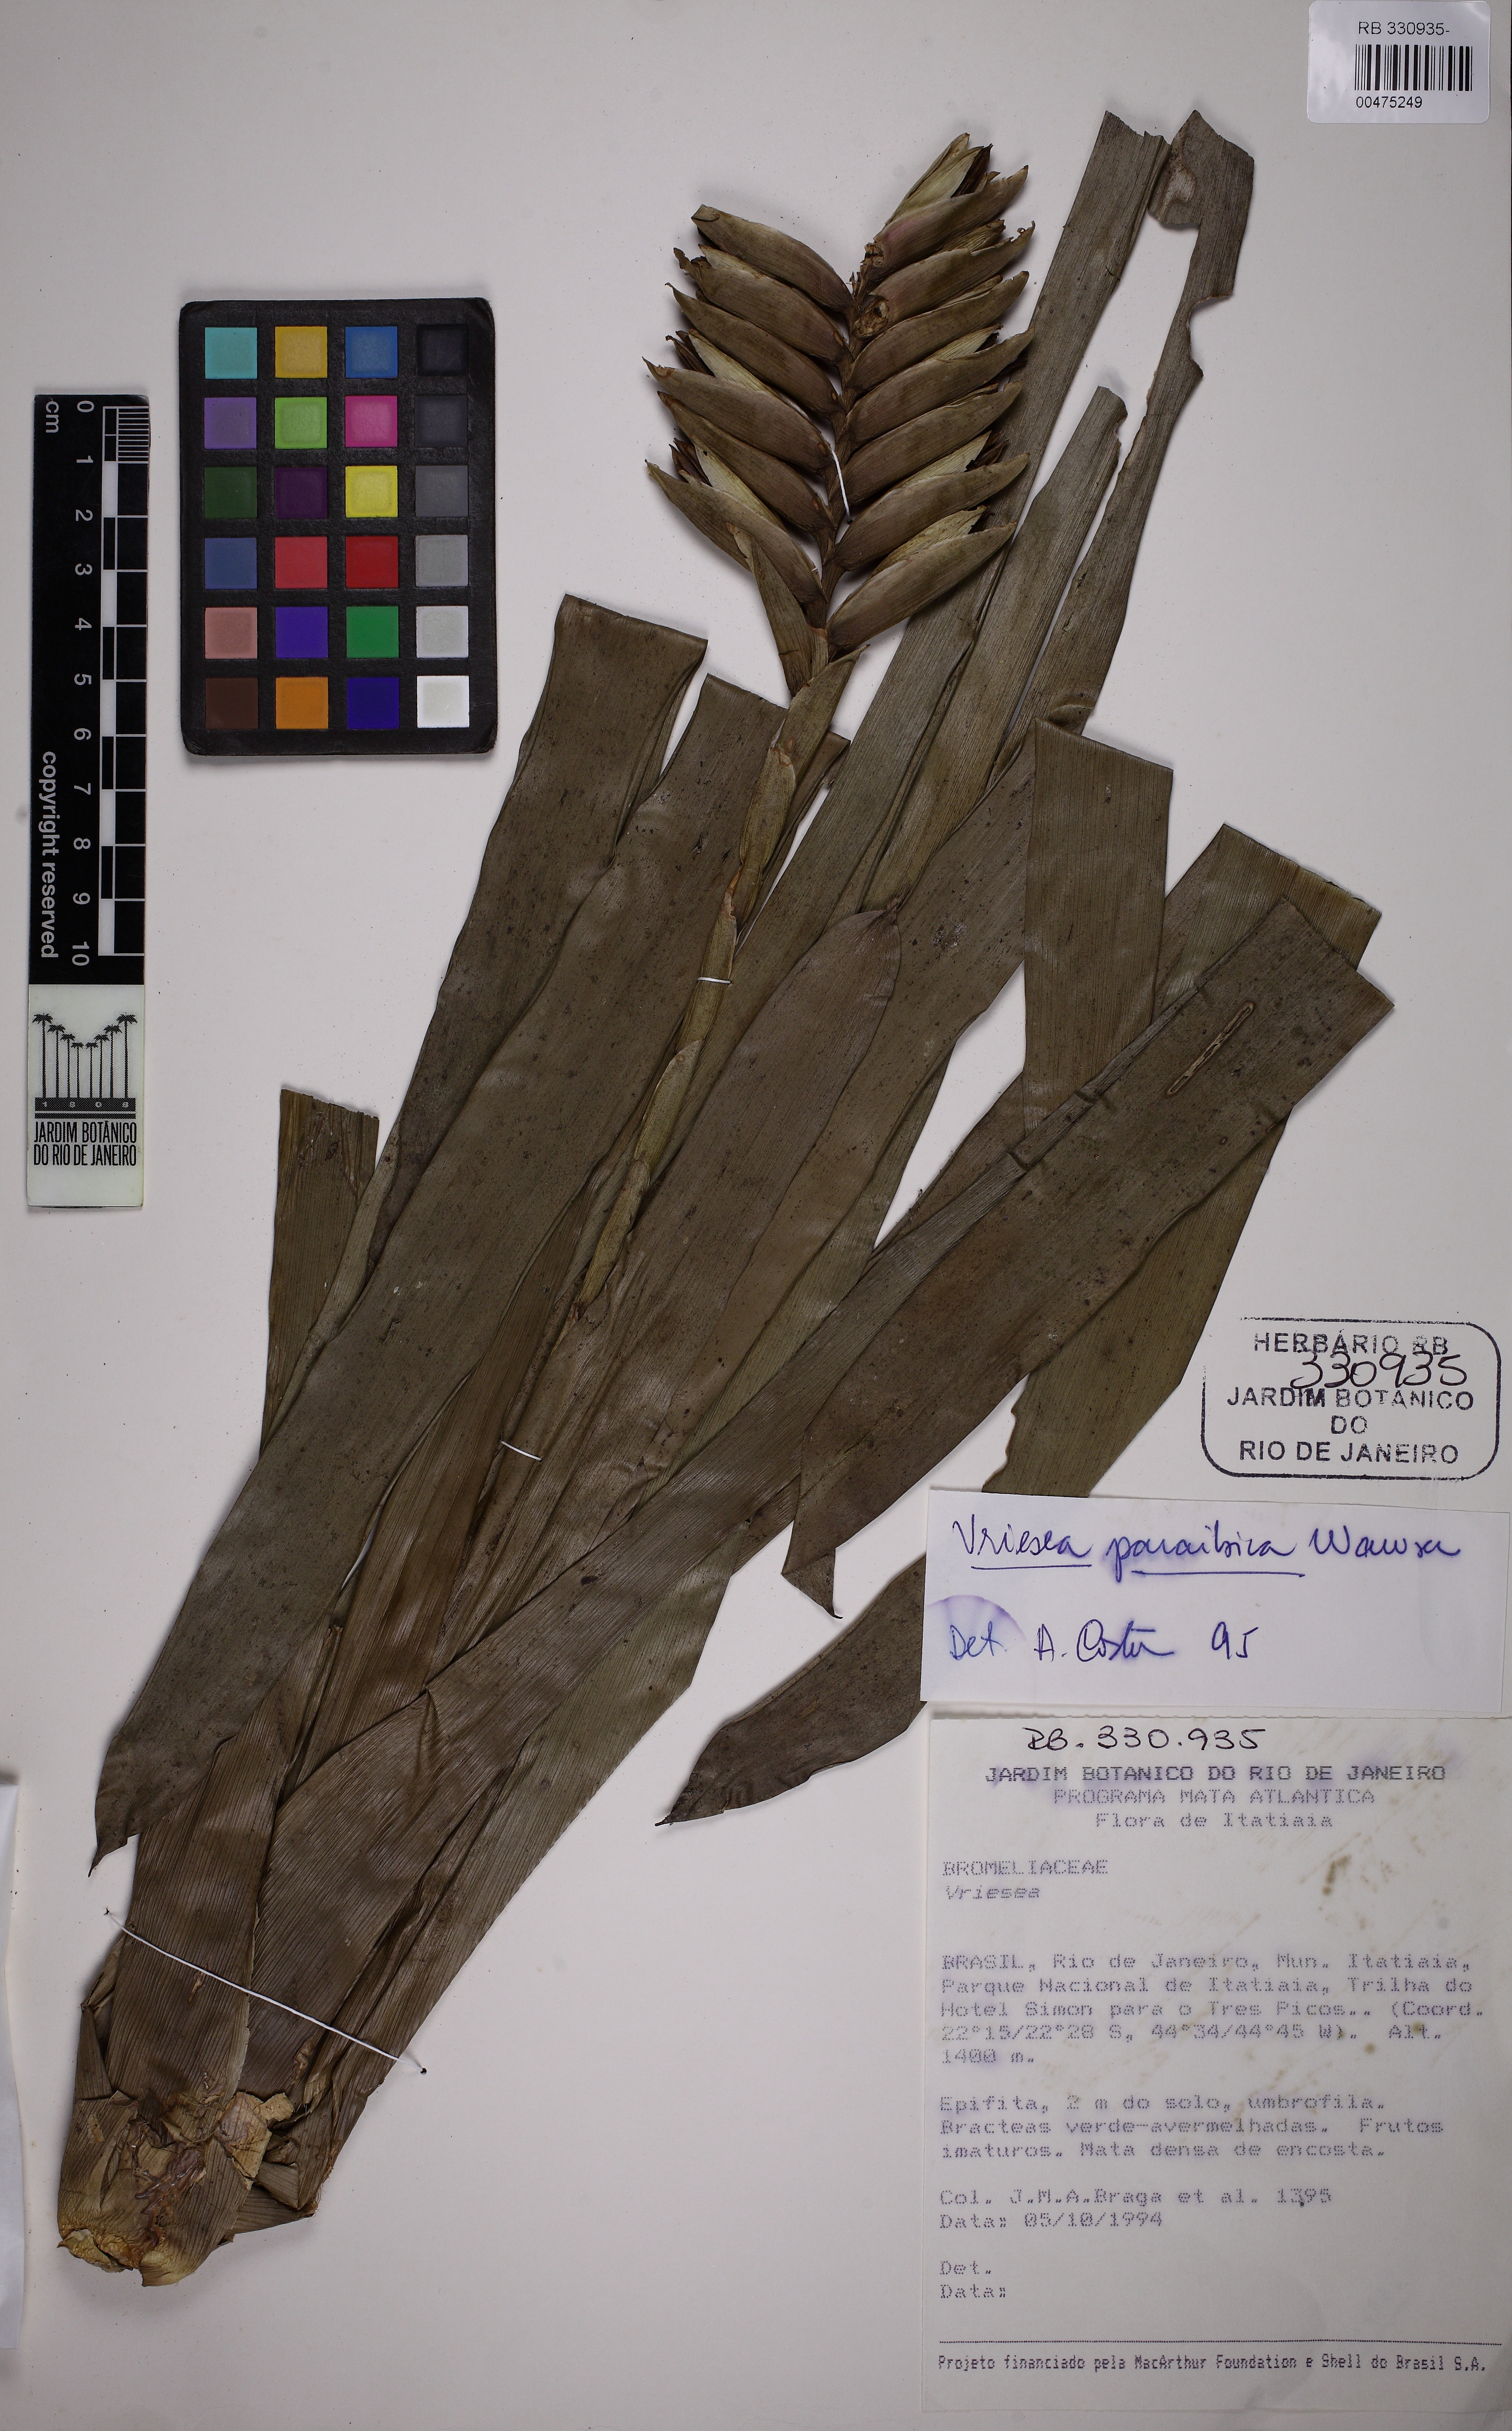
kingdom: Plantae
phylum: Tracheophyta
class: Liliopsida
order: Poales
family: Bromeliaceae
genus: Vriesea
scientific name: Vriesea paraibica
